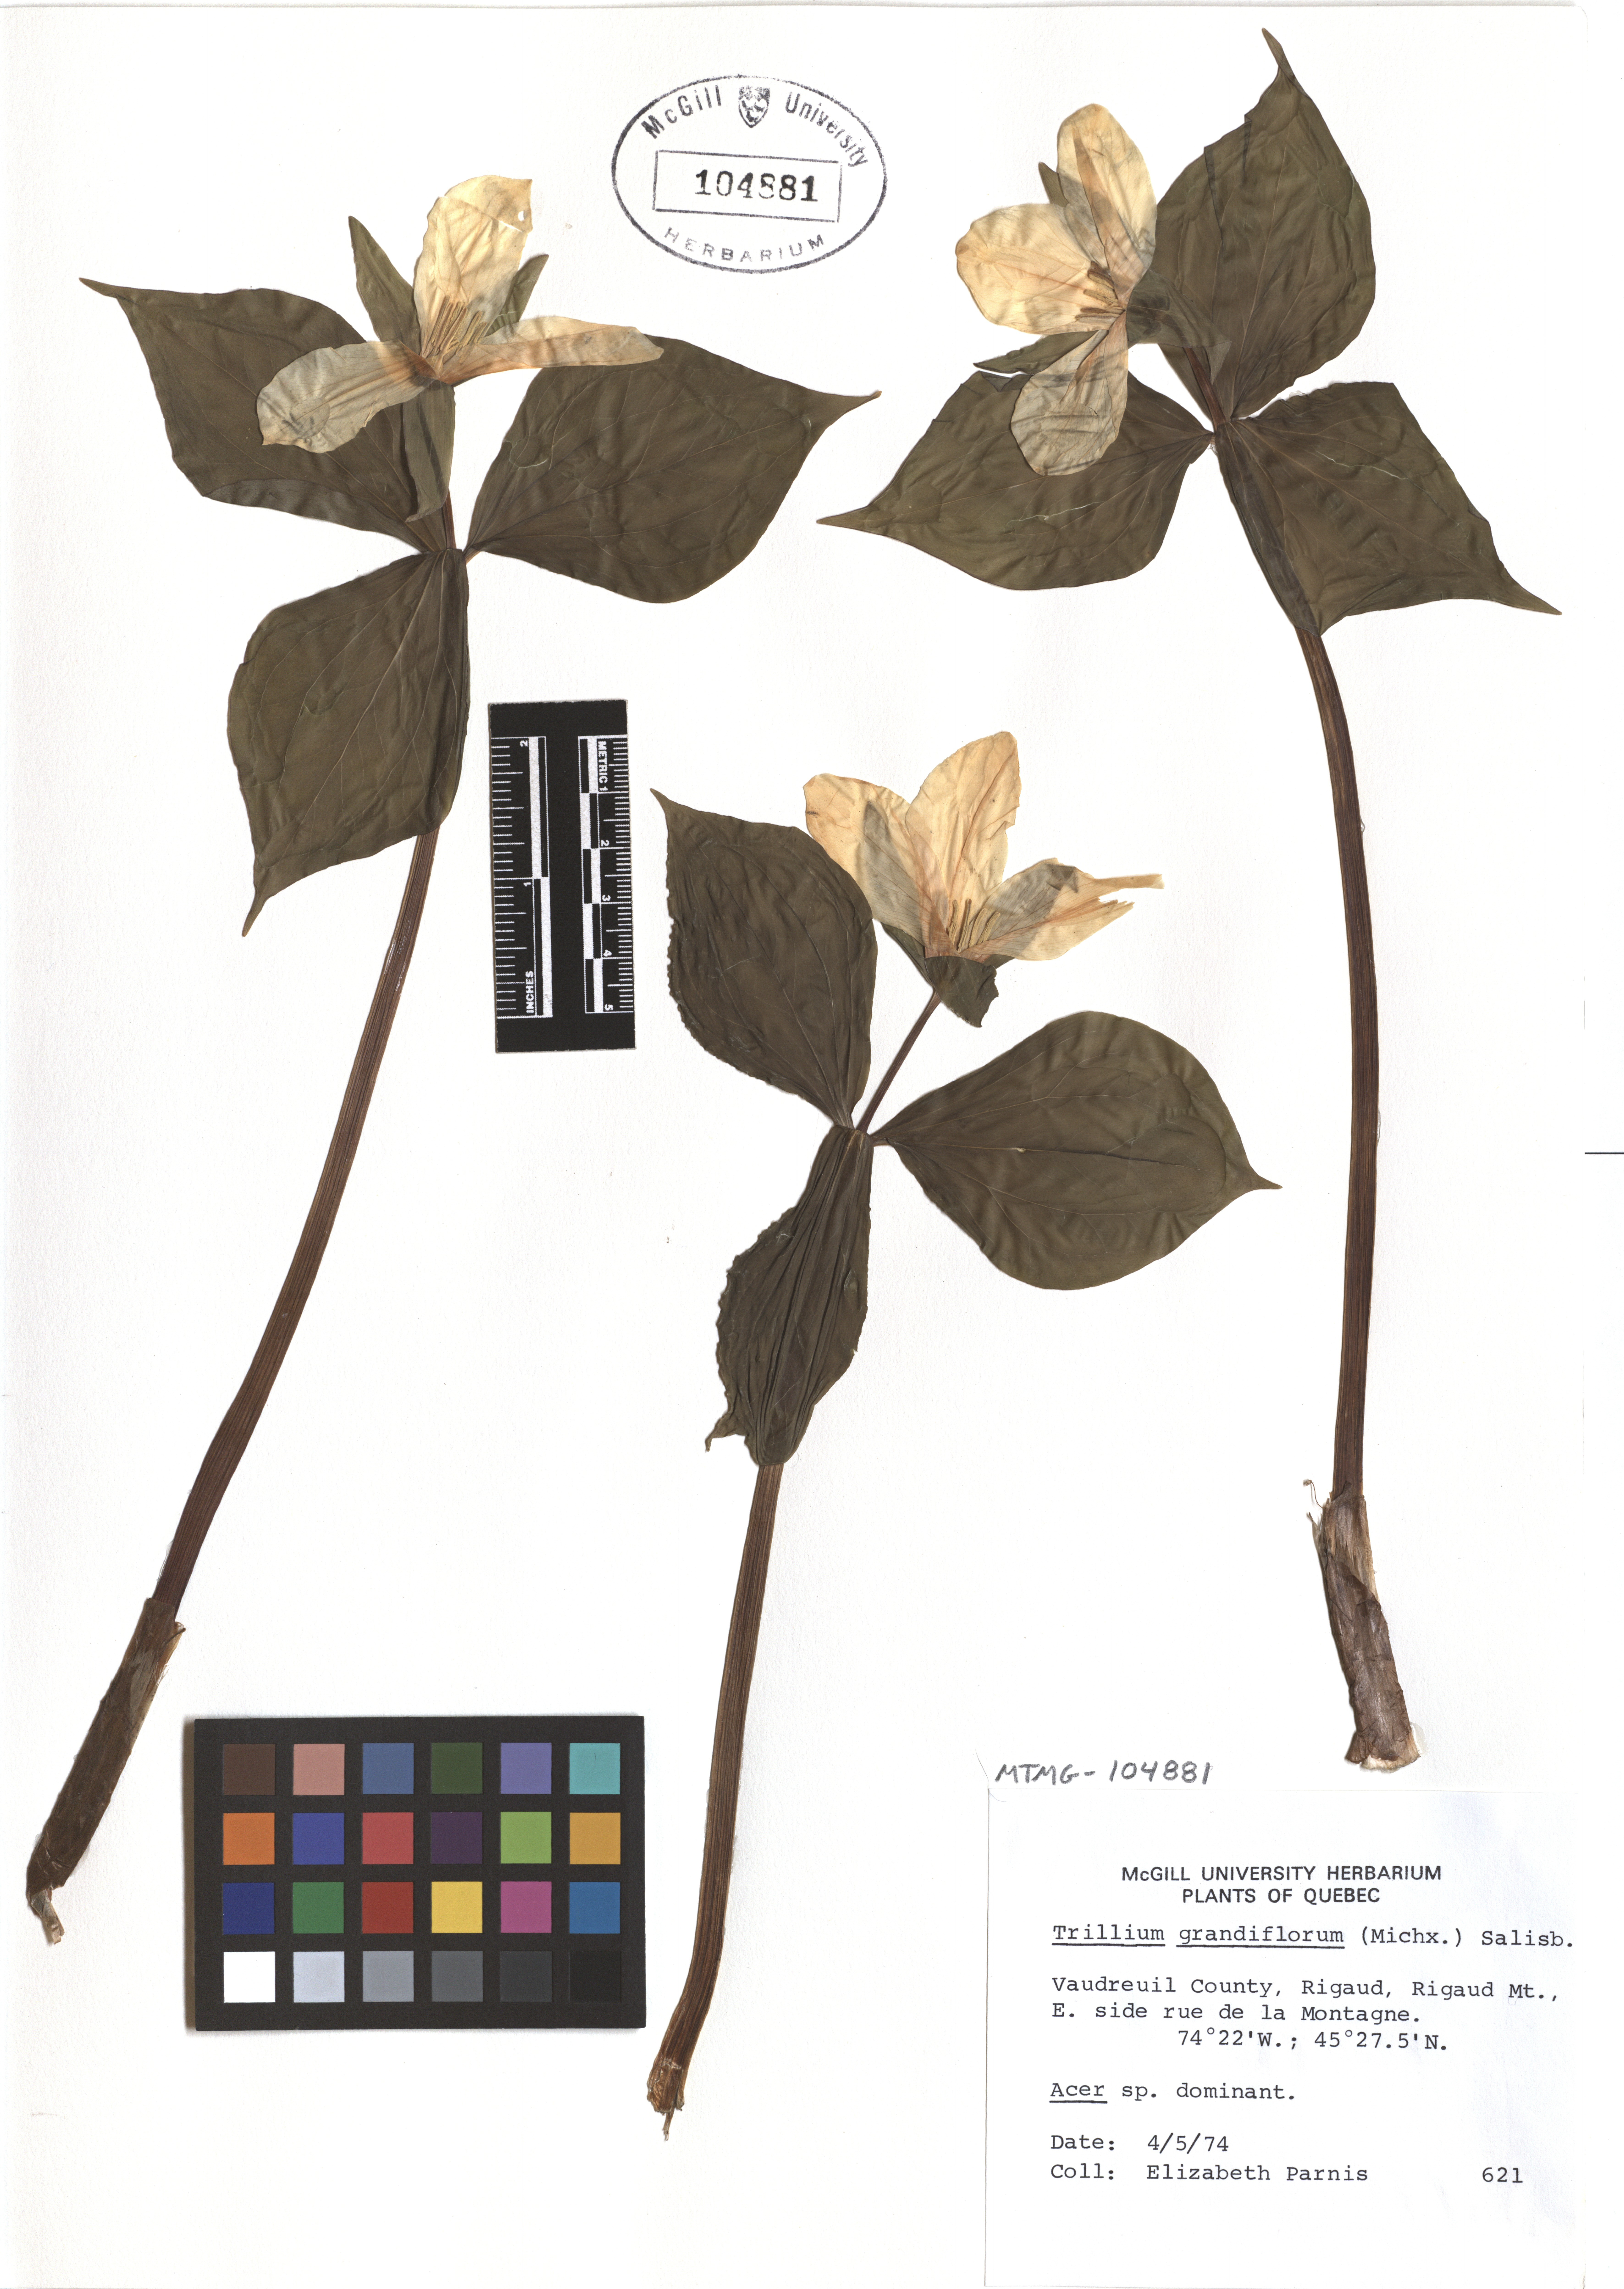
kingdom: Plantae
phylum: Tracheophyta
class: Liliopsida
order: Liliales
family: Melanthiaceae
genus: Trillium
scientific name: Trillium grandiflorum
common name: Great white trillium
